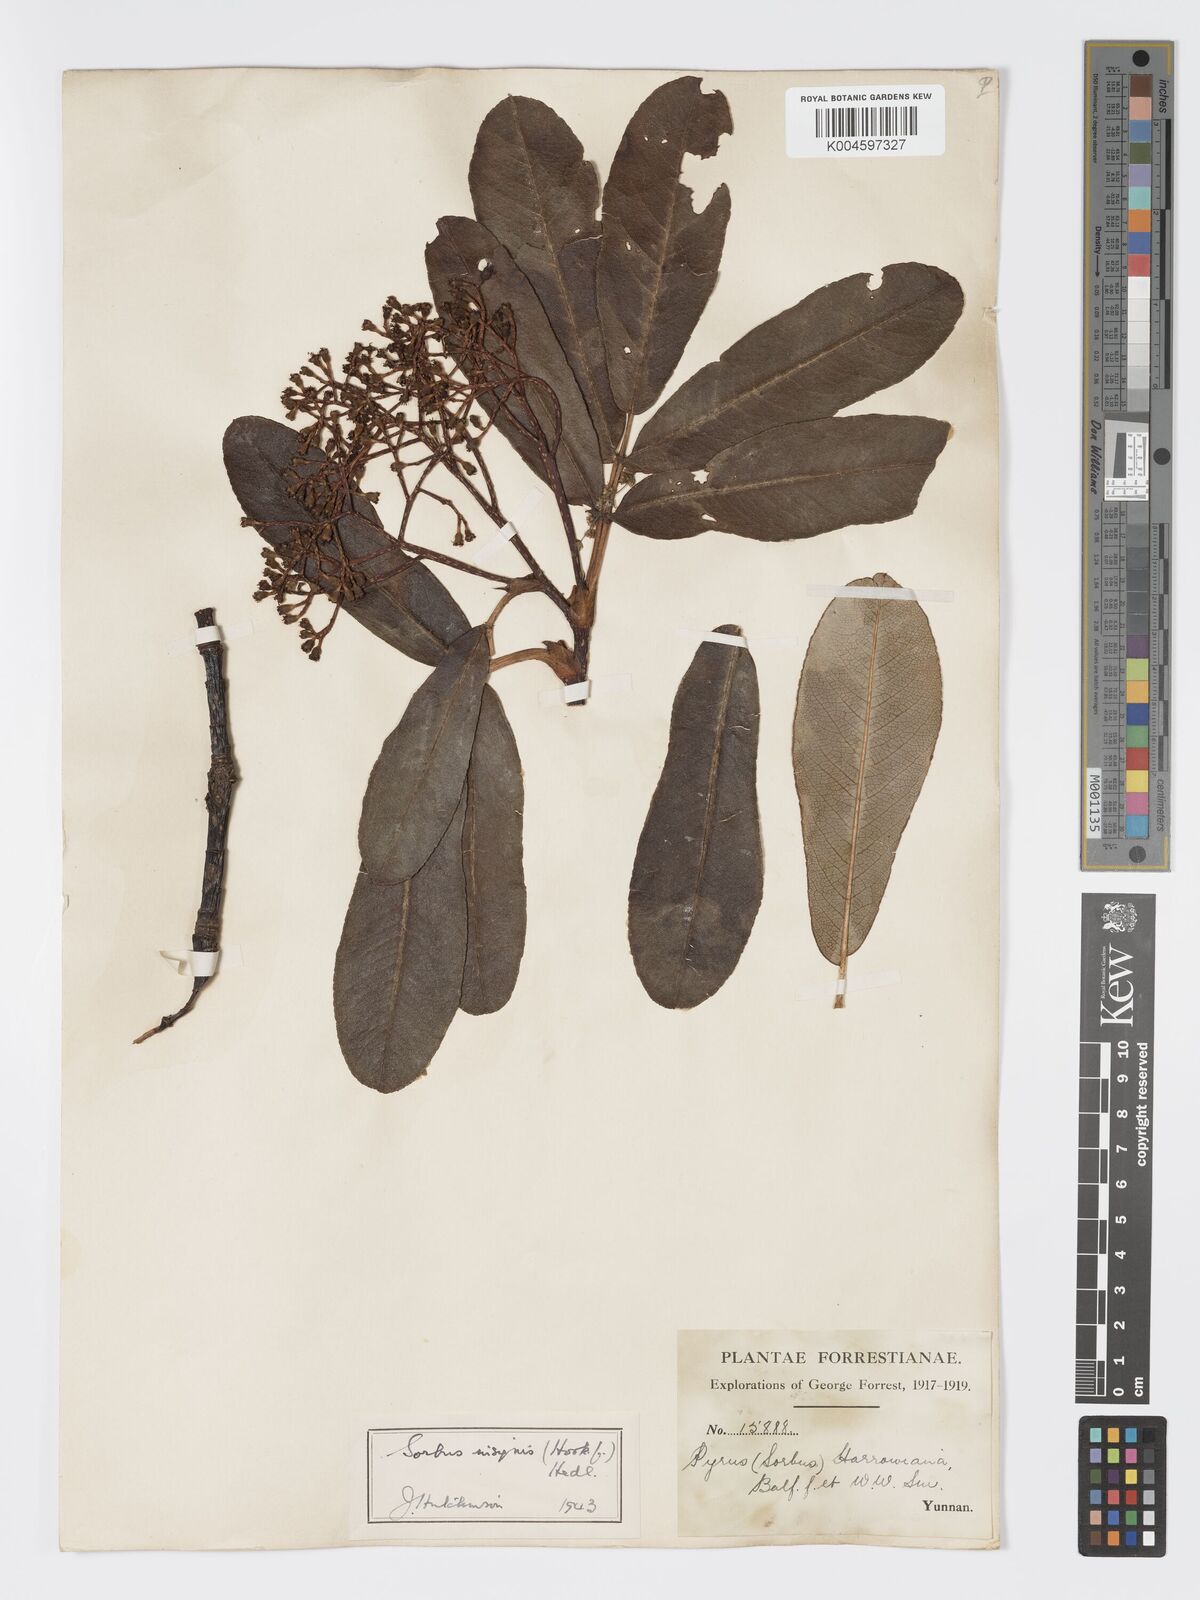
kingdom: Plantae
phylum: Tracheophyta
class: Magnoliopsida
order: Rosales
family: Rosaceae
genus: Sorbus
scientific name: Sorbus
